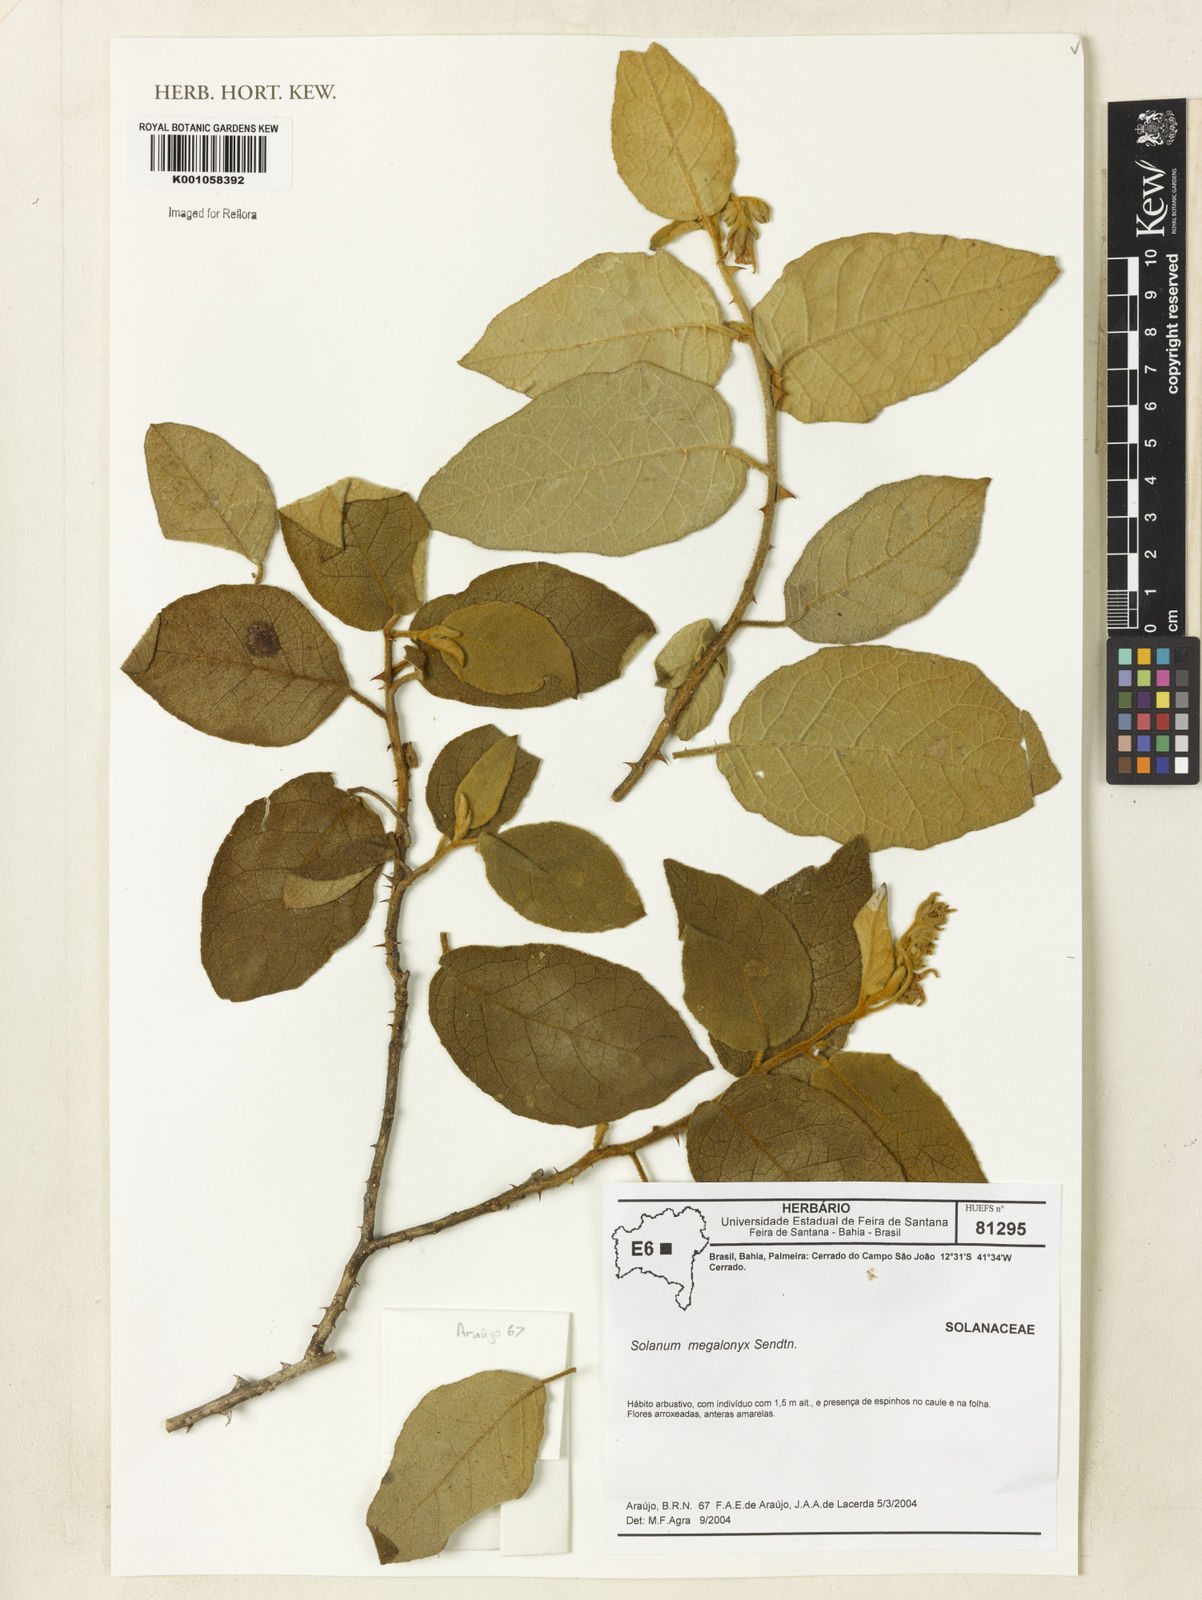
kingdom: Plantae
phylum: Tracheophyta
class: Magnoliopsida
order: Solanales
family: Solanaceae
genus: Solanum
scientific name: Solanum megalonyx
